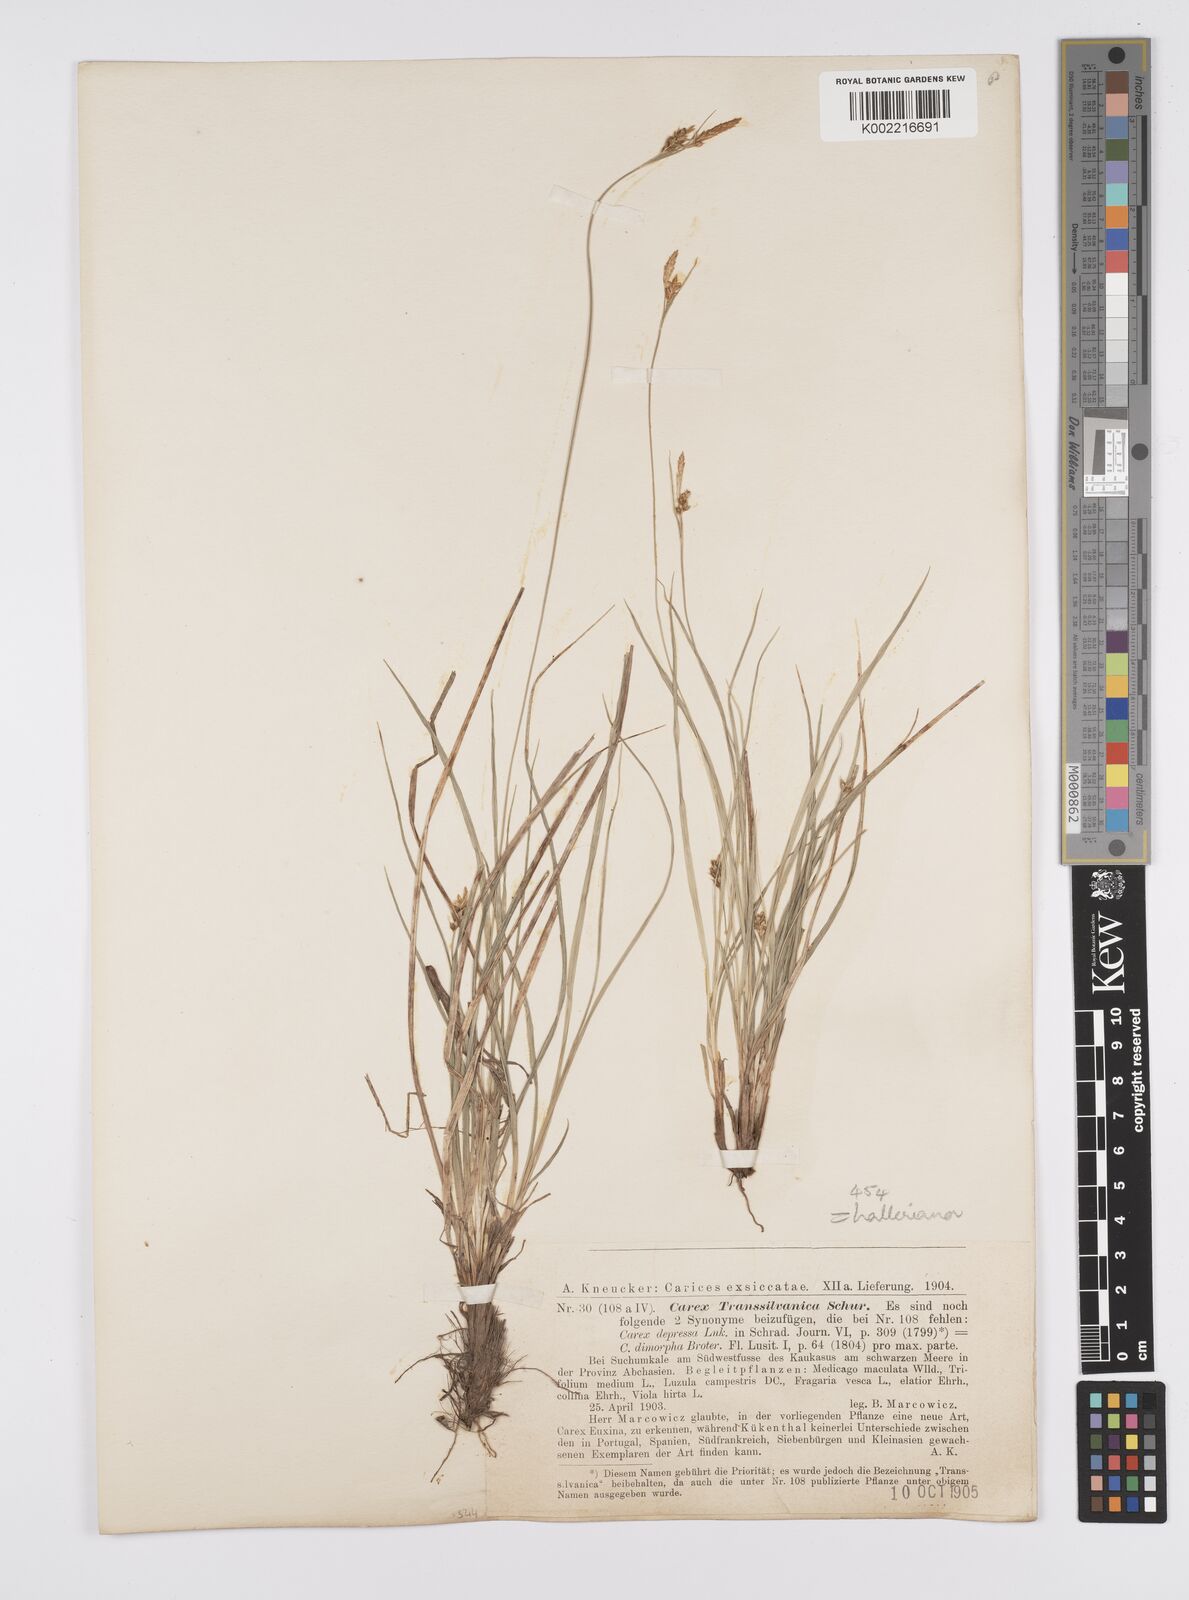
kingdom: Plantae
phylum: Tracheophyta
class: Liliopsida
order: Poales
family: Cyperaceae
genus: Carex
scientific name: Carex halleriana
